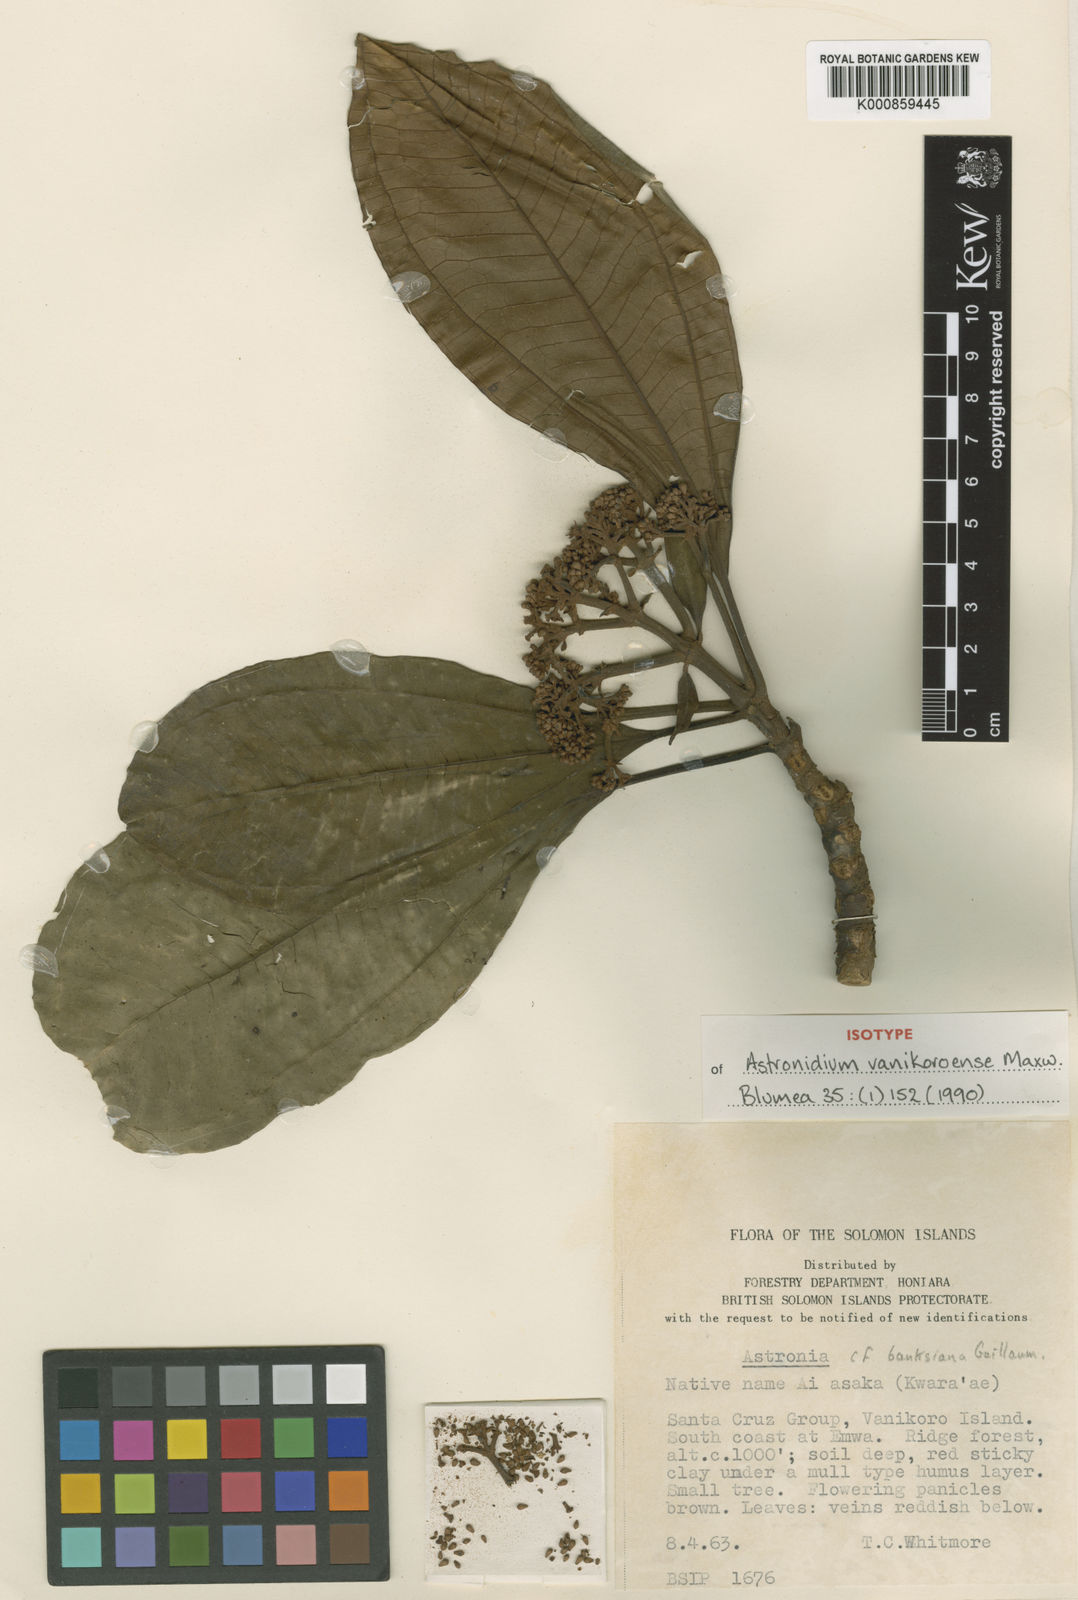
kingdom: Plantae
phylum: Tracheophyta
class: Magnoliopsida
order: Myrtales
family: Melastomataceae
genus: Astronidium
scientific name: Astronidium vanikoroense
